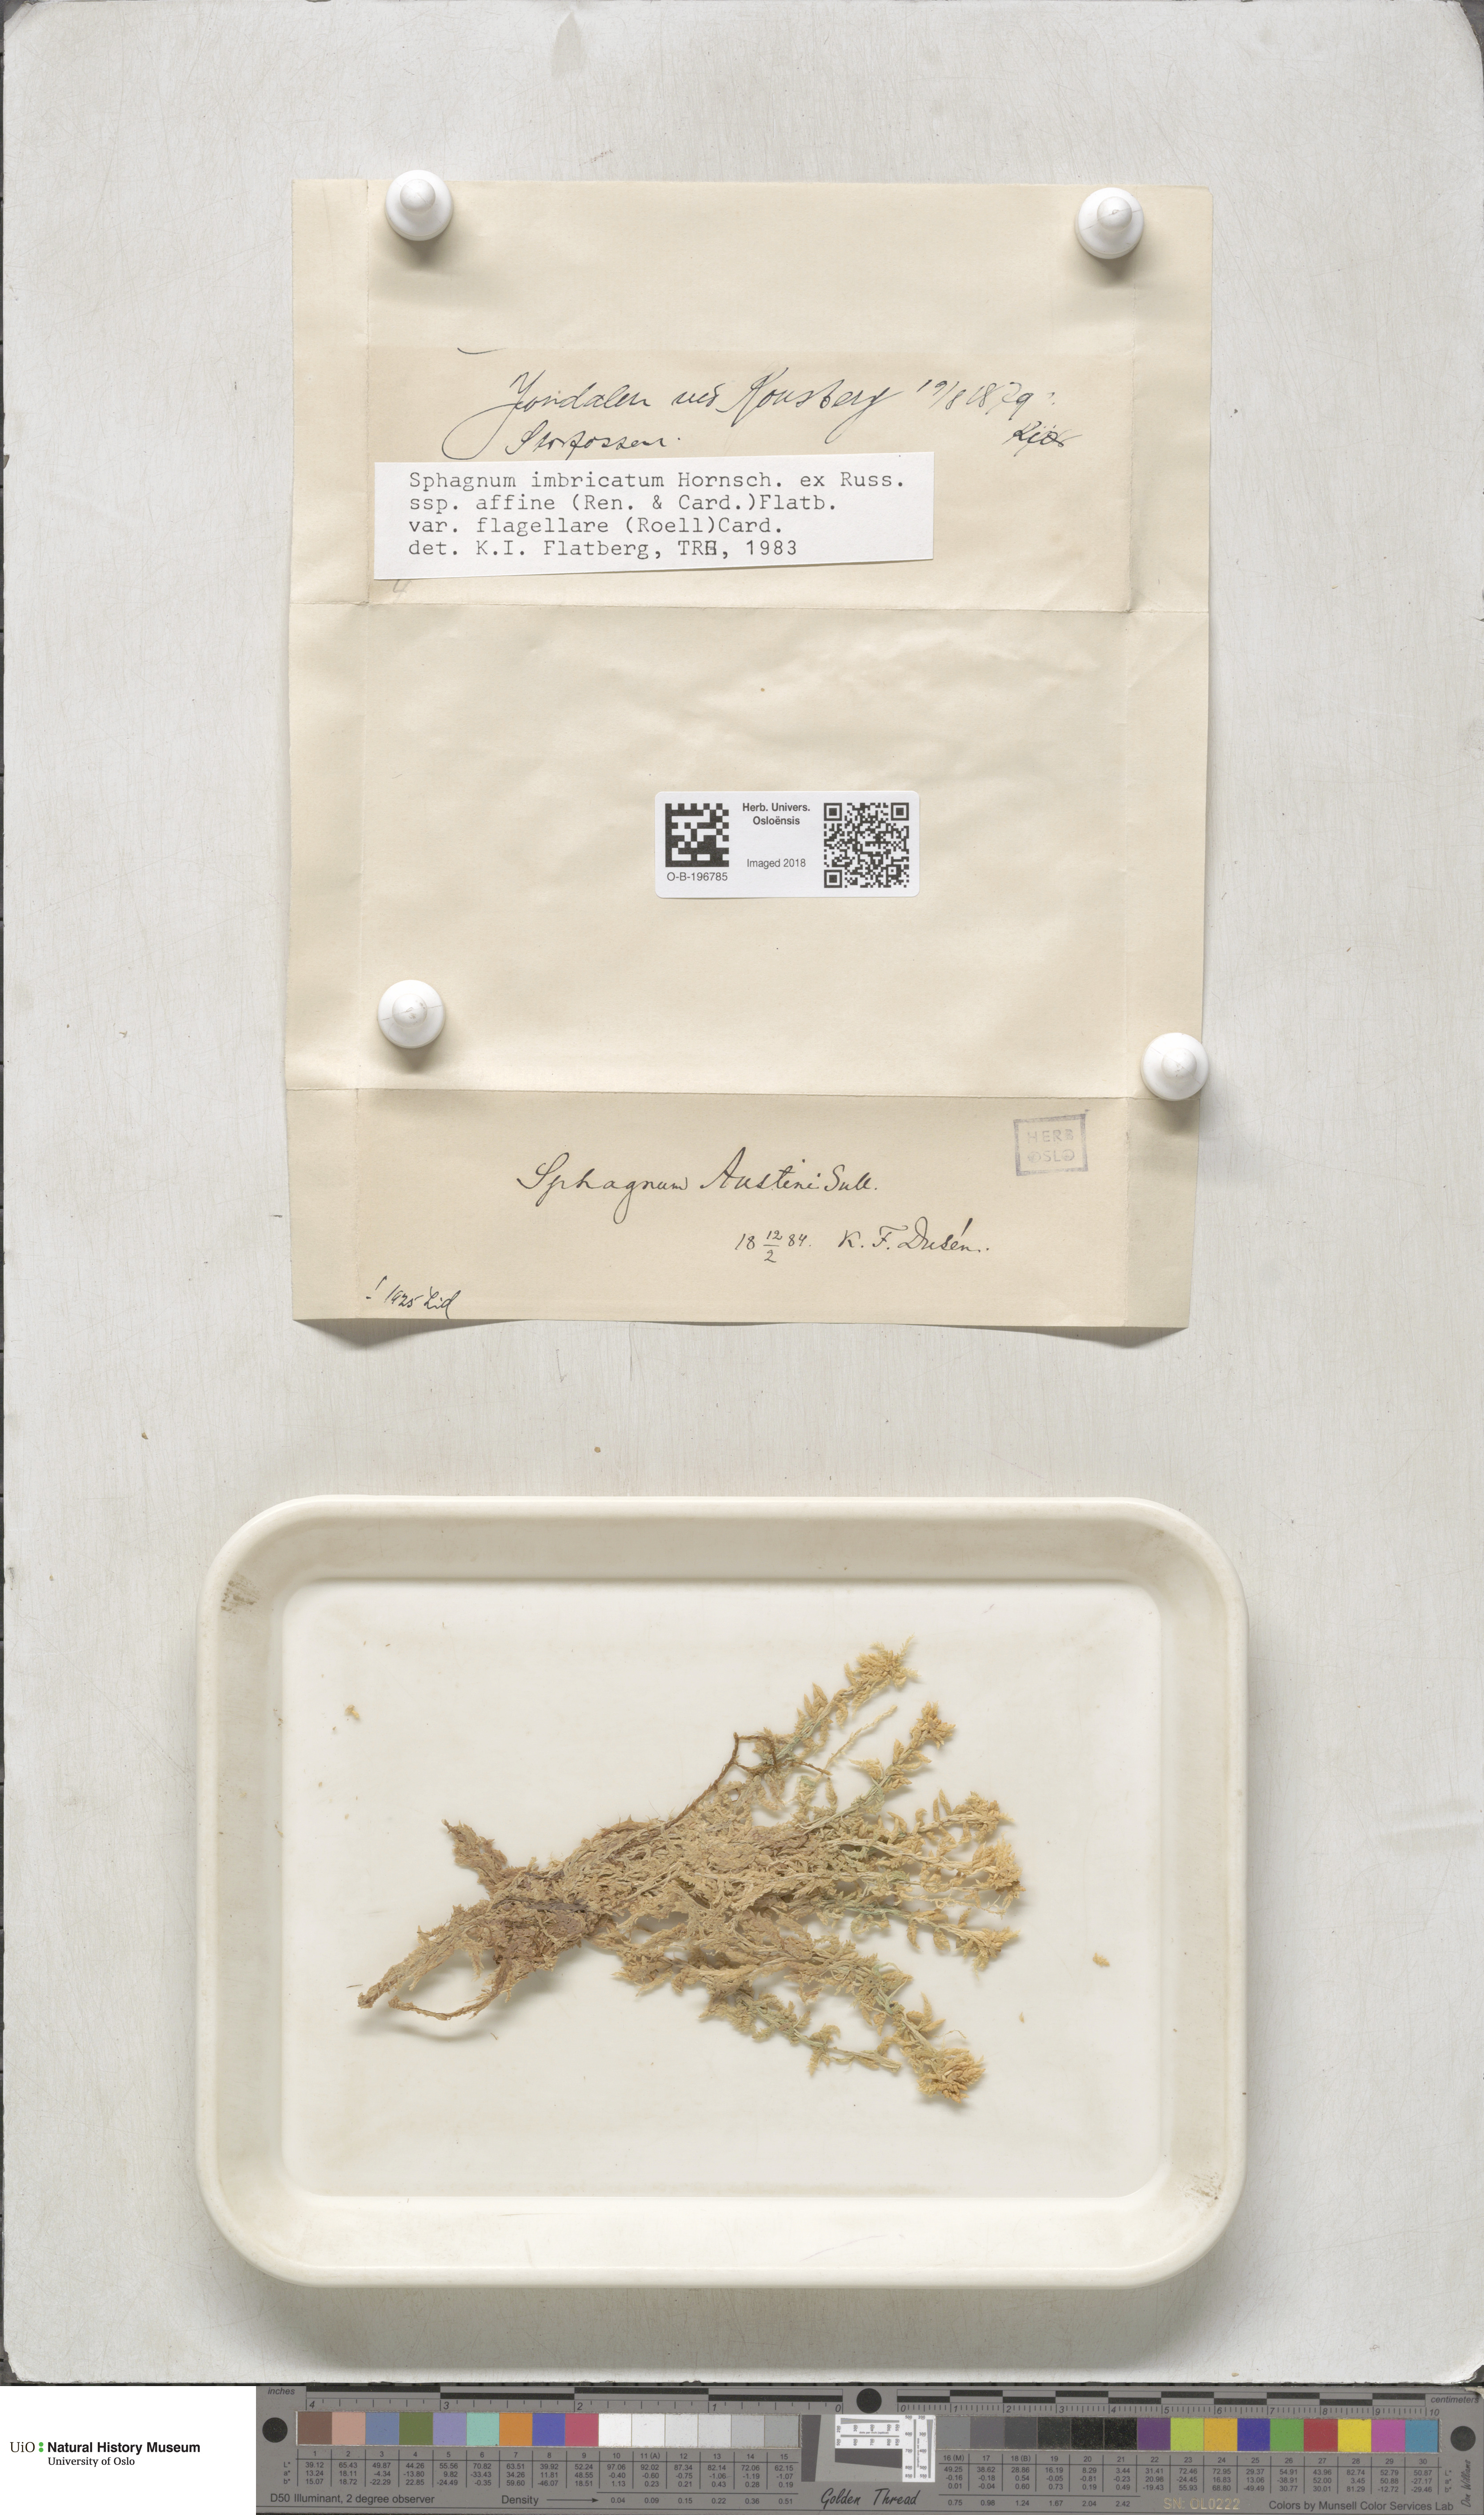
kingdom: Plantae
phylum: Bryophyta
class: Sphagnopsida
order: Sphagnales
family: Sphagnaceae
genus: Sphagnum
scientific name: Sphagnum affine
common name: Imbricate peat moss
